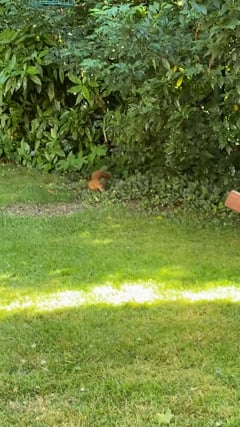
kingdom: Animalia
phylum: Chordata
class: Mammalia
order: Rodentia
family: Sciuridae
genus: Sciurus
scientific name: Sciurus vulgaris
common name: Eurasian red squirrel
